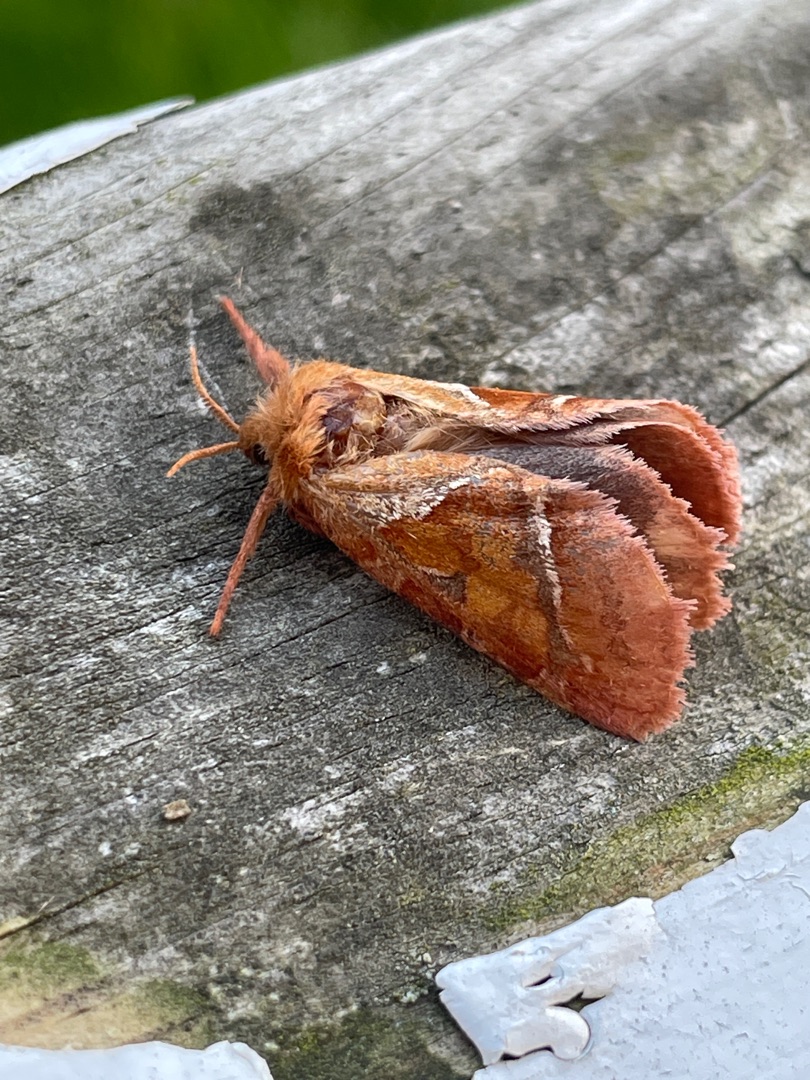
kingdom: Animalia
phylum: Arthropoda
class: Insecta
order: Lepidoptera
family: Hepialidae
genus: Triodia
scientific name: Triodia sylvina
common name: Skræpperodæder
